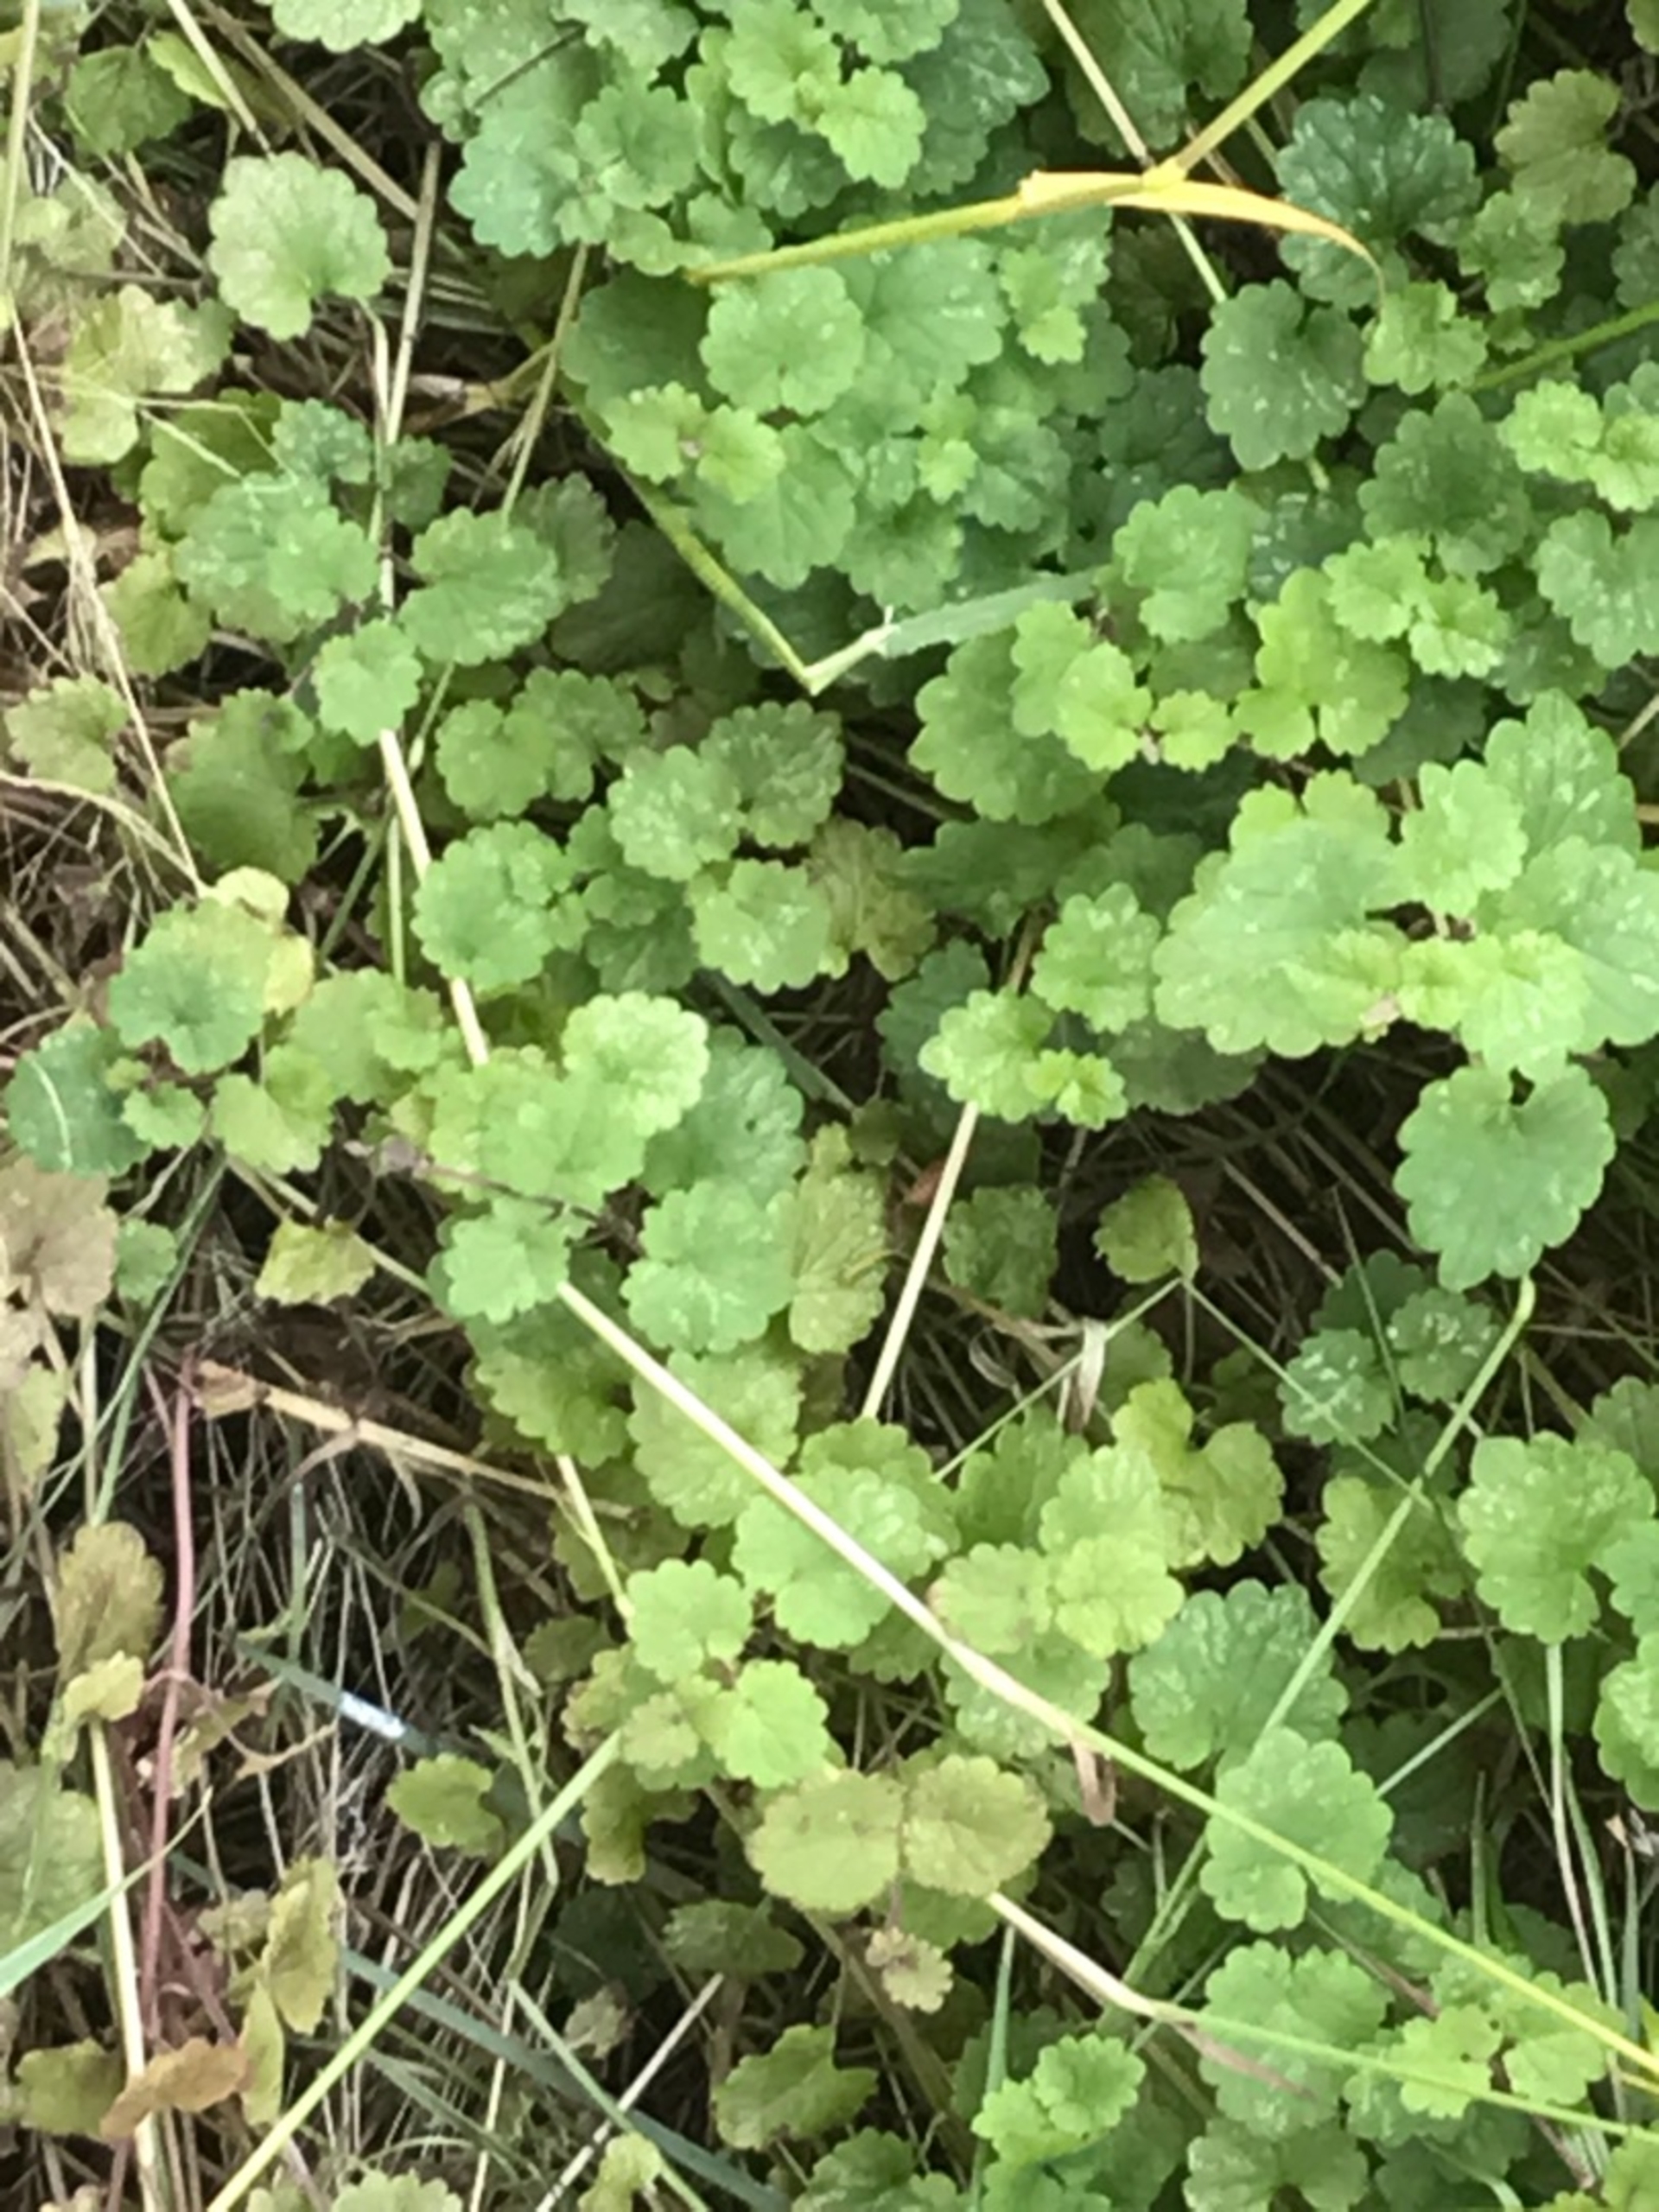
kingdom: Plantae
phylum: Tracheophyta
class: Magnoliopsida
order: Lamiales
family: Lamiaceae
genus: Glechoma
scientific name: Glechoma hederacea
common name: Korsknap
